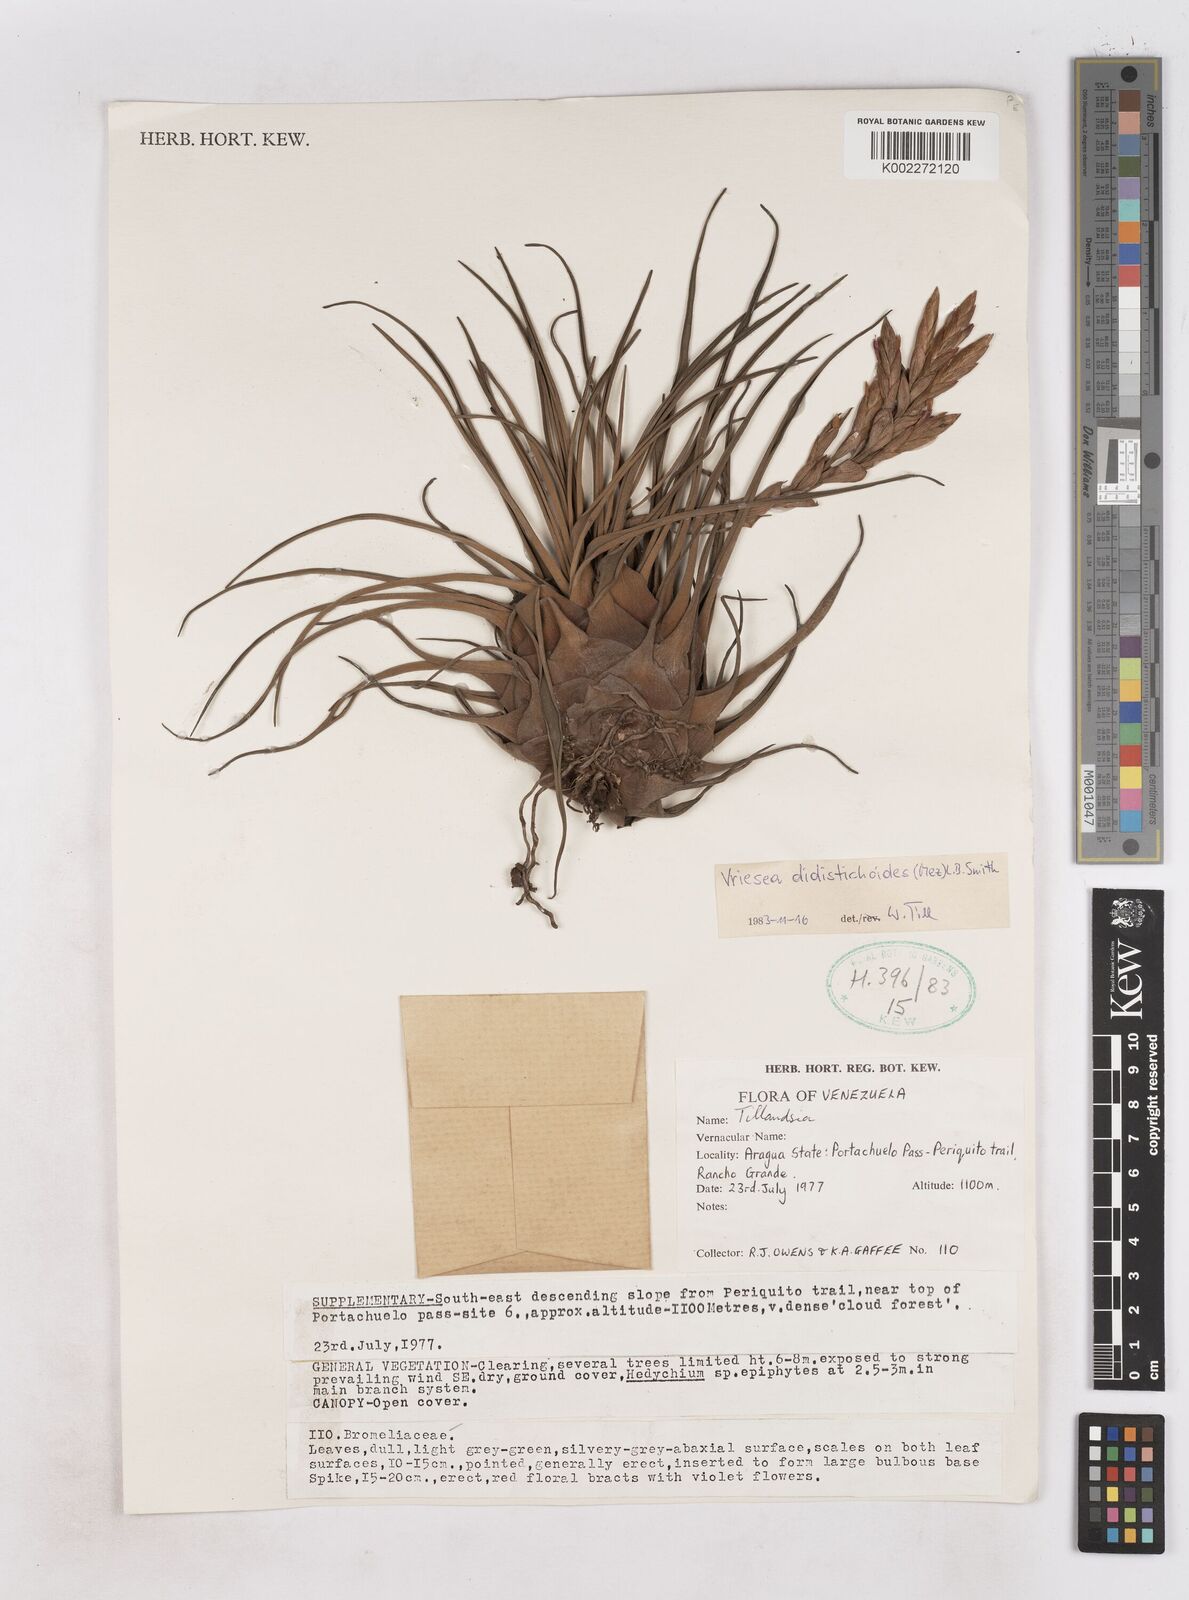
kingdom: Plantae
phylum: Tracheophyta
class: Liliopsida
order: Poales
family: Bromeliaceae
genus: Tillandsia
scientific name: Tillandsia didistichoides
